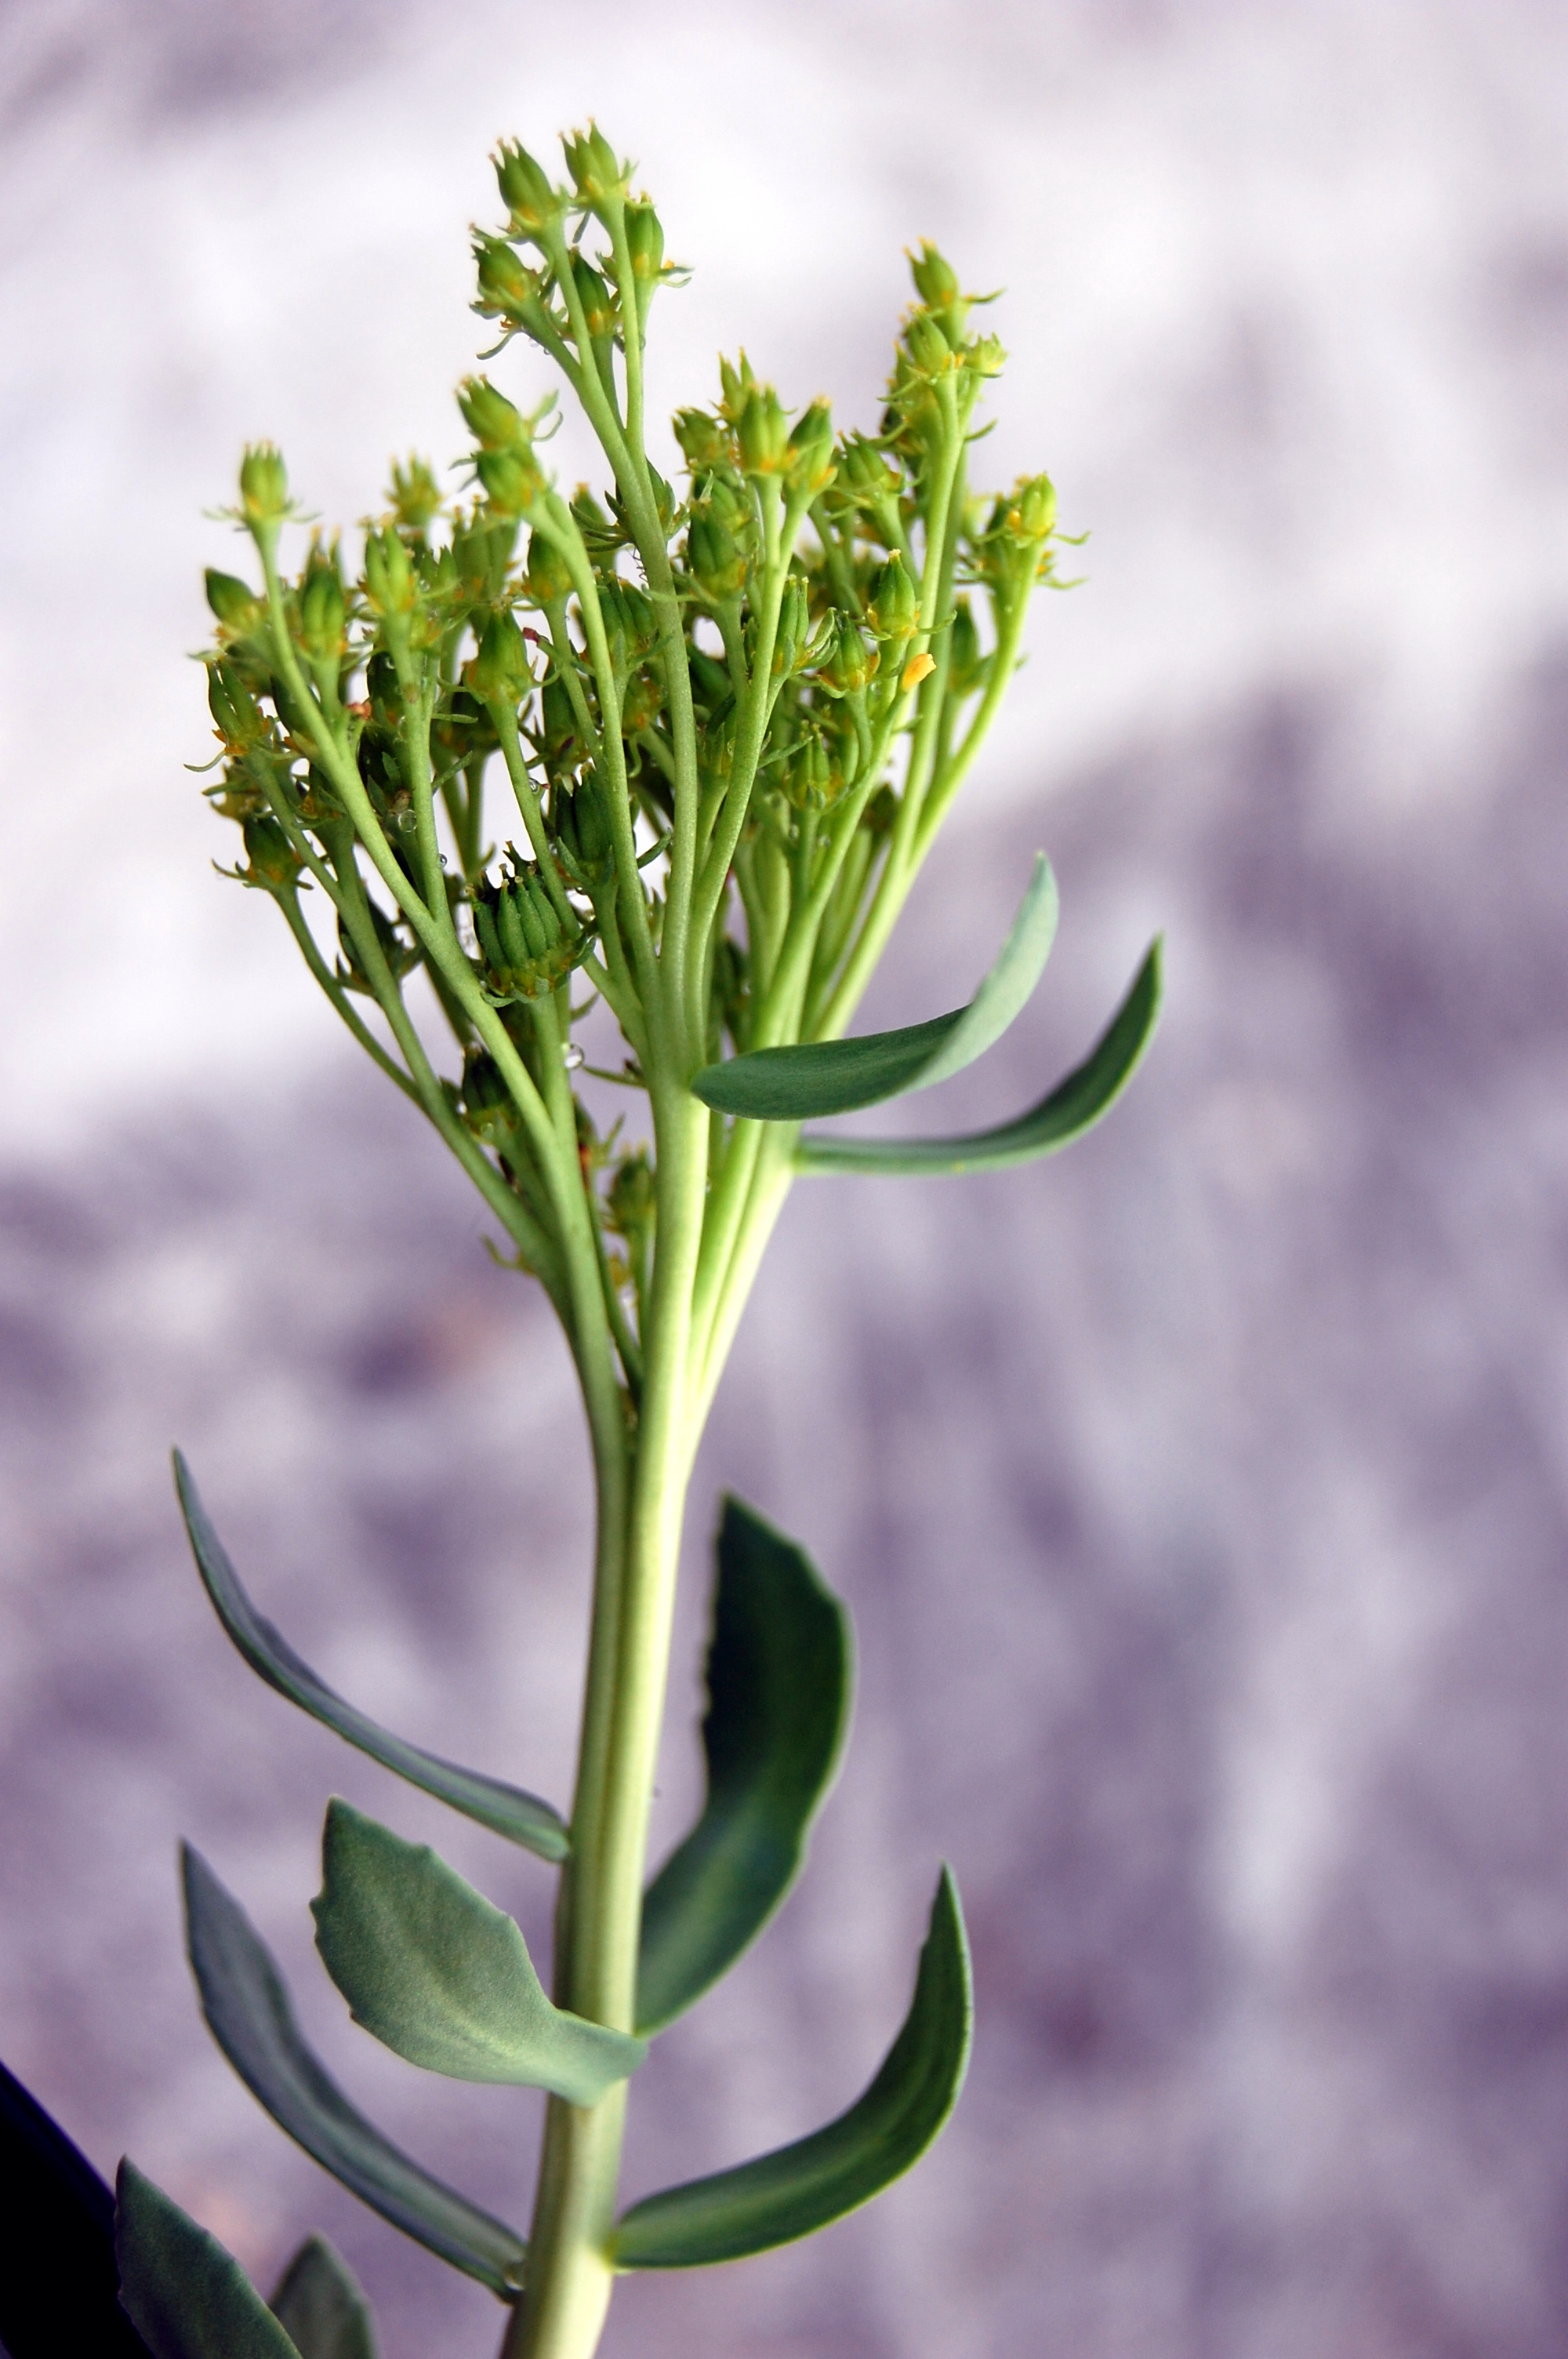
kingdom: Plantae
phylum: Tracheophyta
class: Magnoliopsida
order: Saxifragales
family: Crassulaceae
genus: Rhodiola
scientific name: Rhodiola rosea
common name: Roseroot
